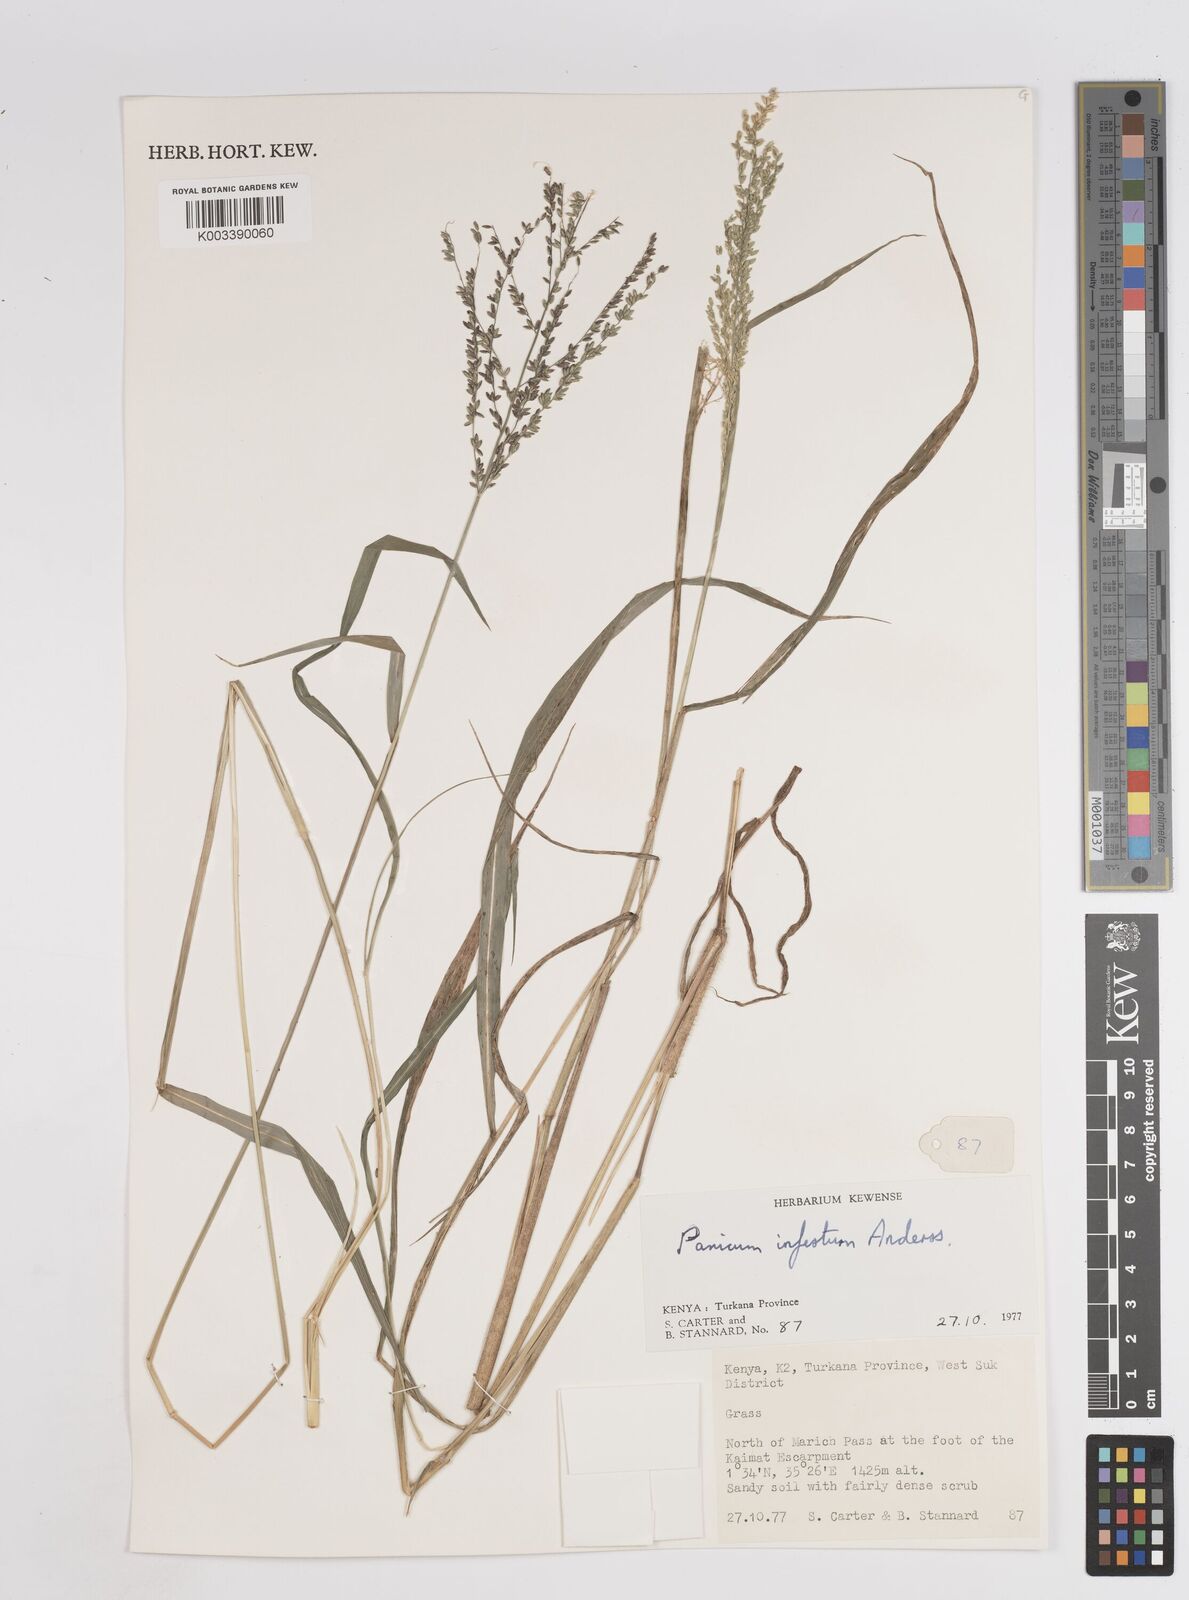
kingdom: Plantae
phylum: Tracheophyta
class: Liliopsida
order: Poales
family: Poaceae
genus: Megathyrsus
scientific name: Megathyrsus infestus
